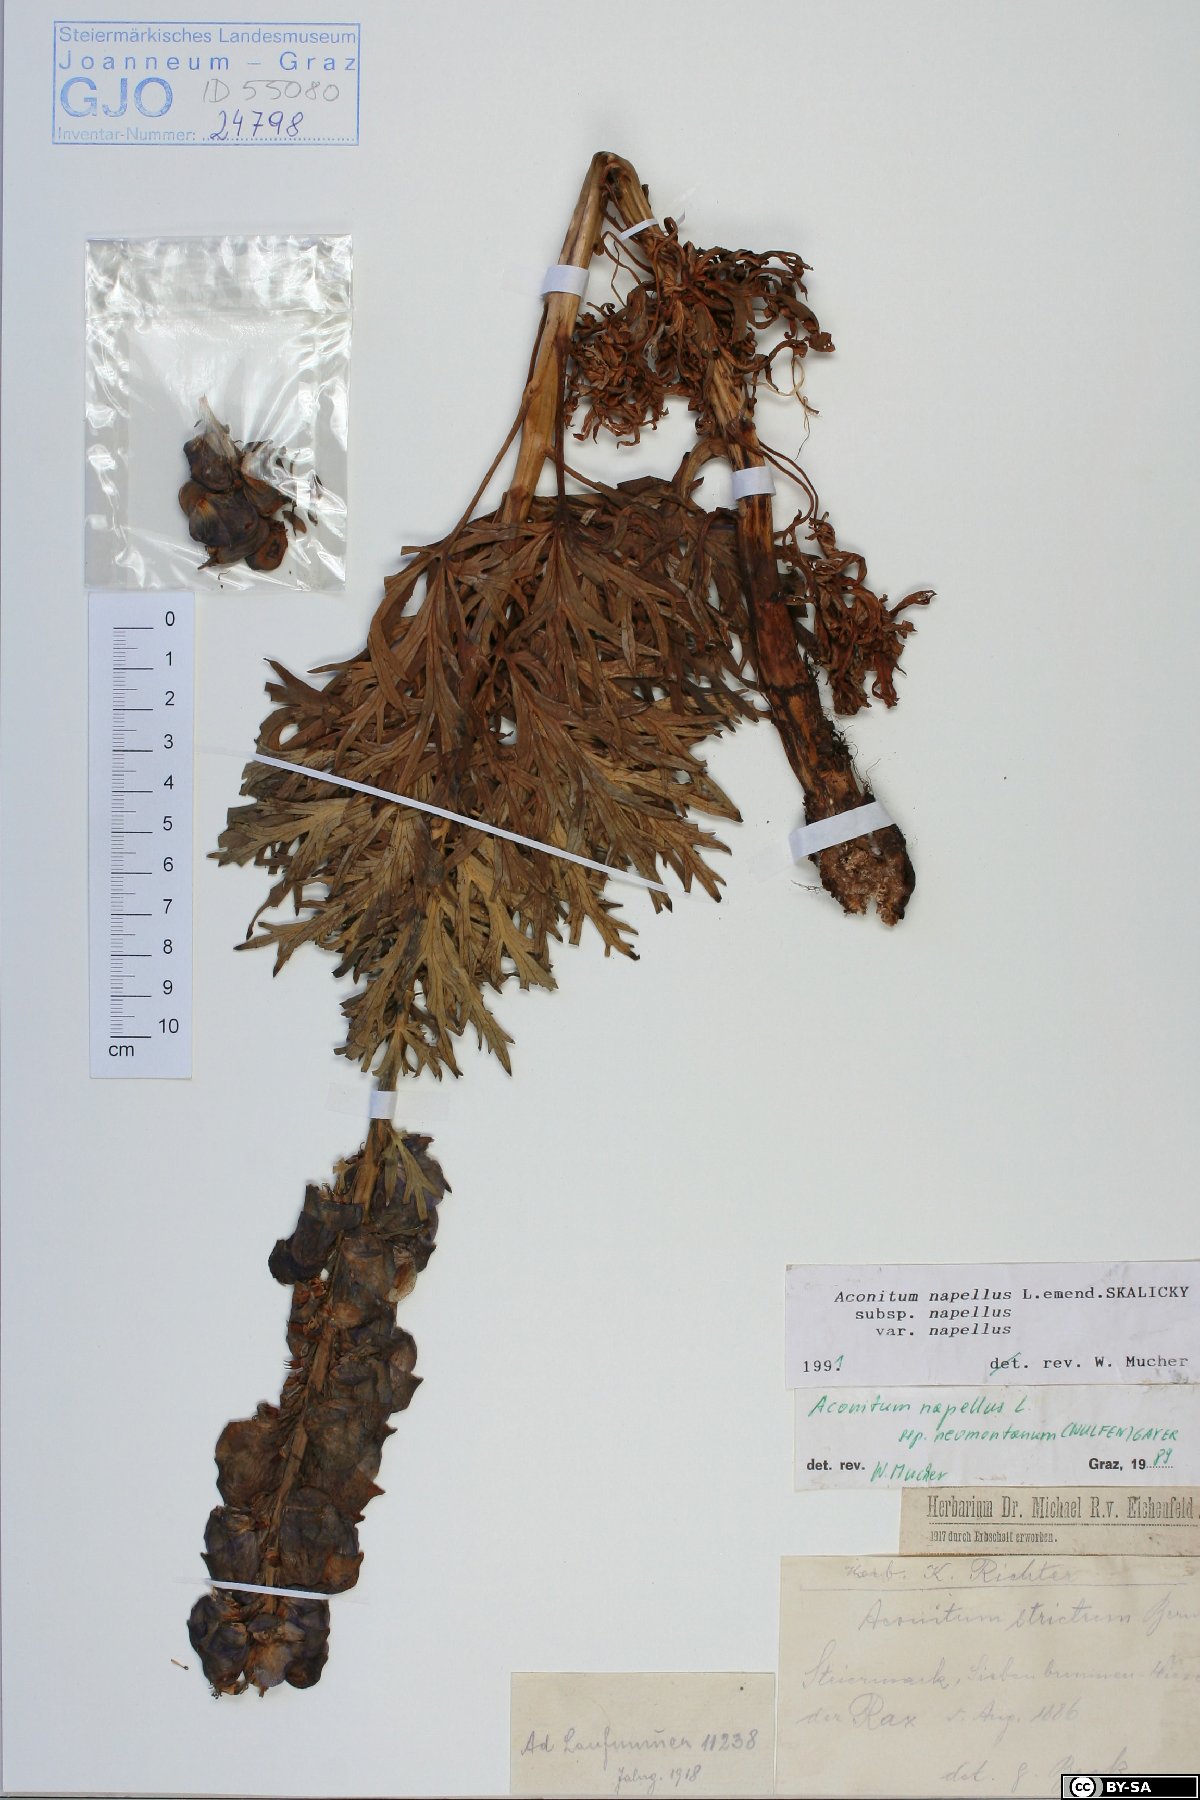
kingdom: Plantae
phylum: Tracheophyta
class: Magnoliopsida
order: Ranunculales
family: Ranunculaceae
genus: Aconitum
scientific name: Aconitum napellus
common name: Garden monkshood
